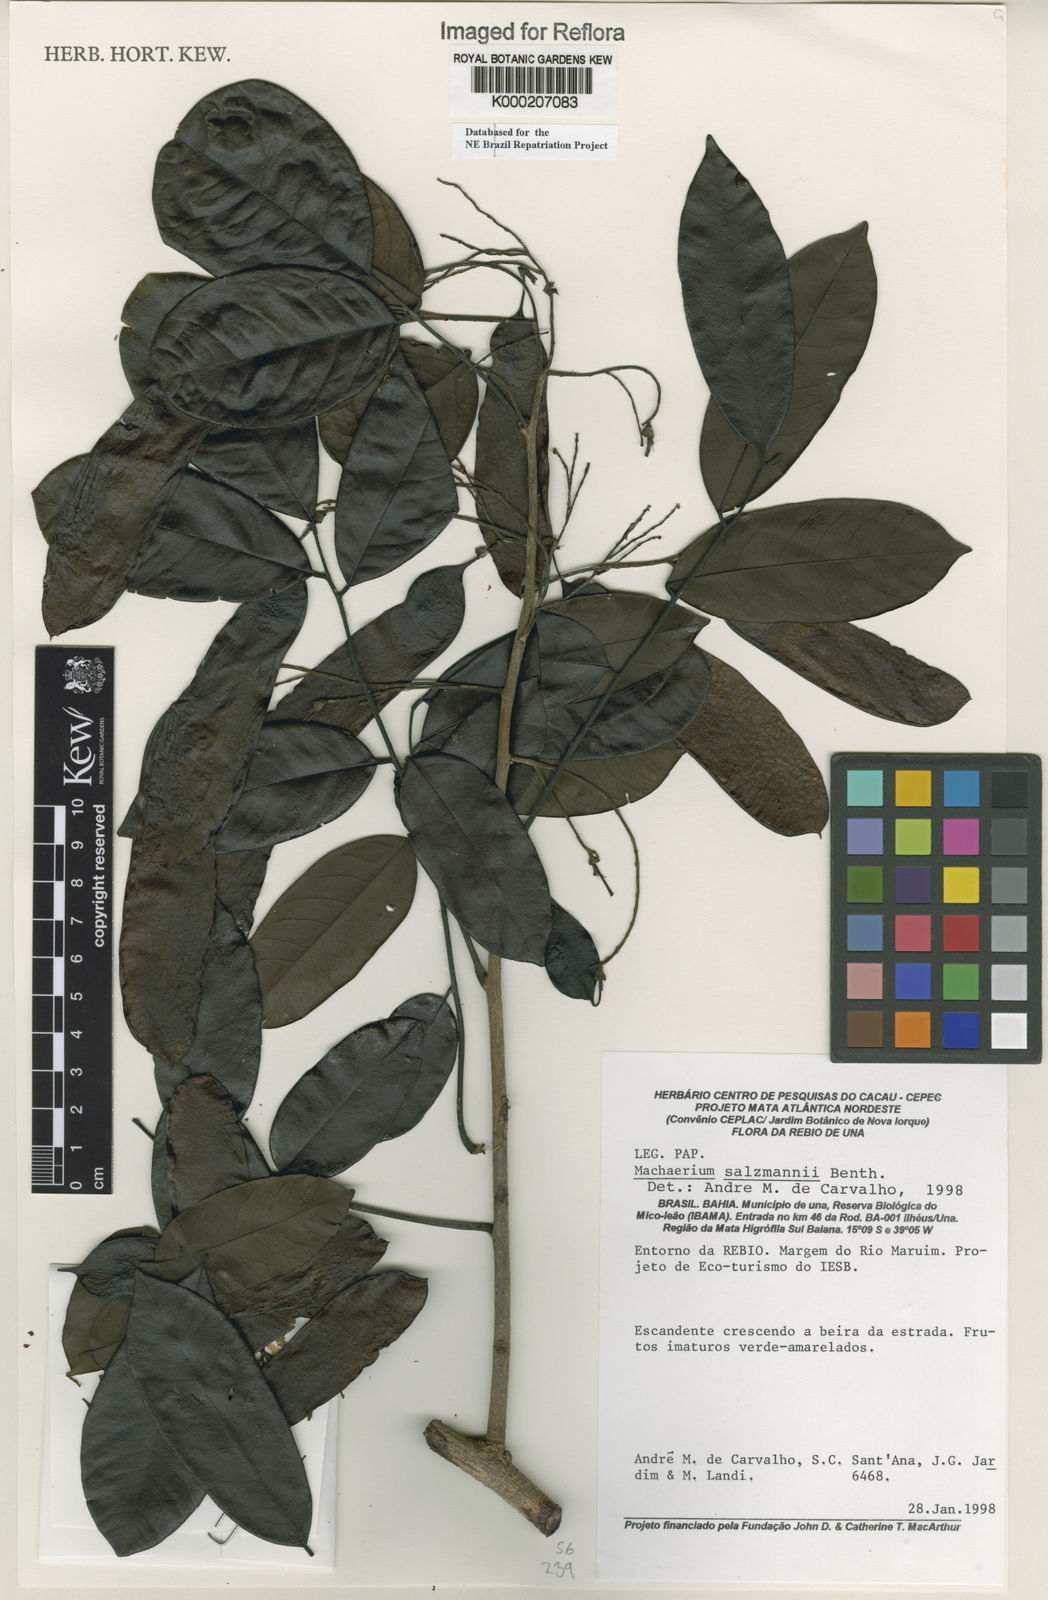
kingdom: Plantae
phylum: Tracheophyta
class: Magnoliopsida
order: Fabales
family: Fabaceae
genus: Machaerium
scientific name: Machaerium salzmannii
